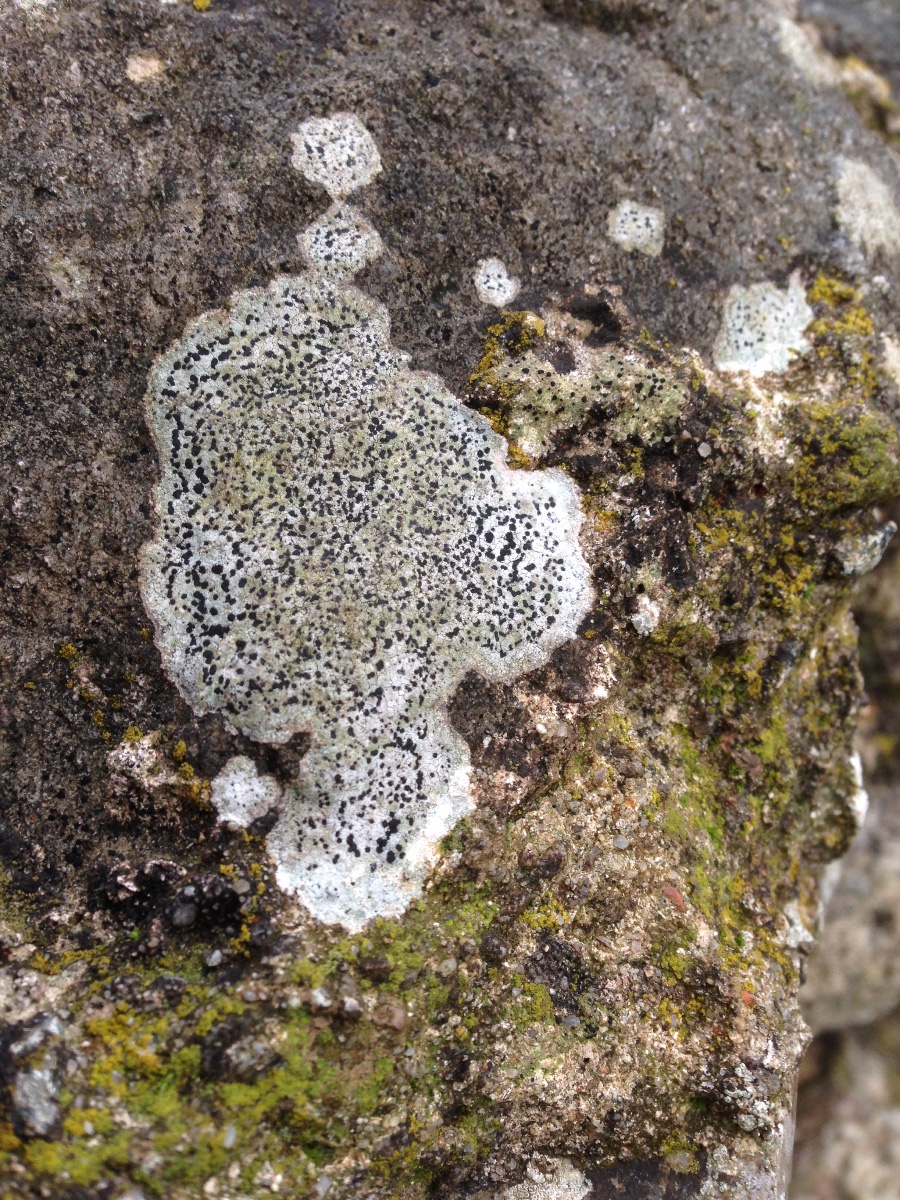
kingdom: Fungi
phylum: Ascomycota
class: Lecanoromycetes
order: Lecideales
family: Lecideaceae
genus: Porpidia
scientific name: Porpidia
